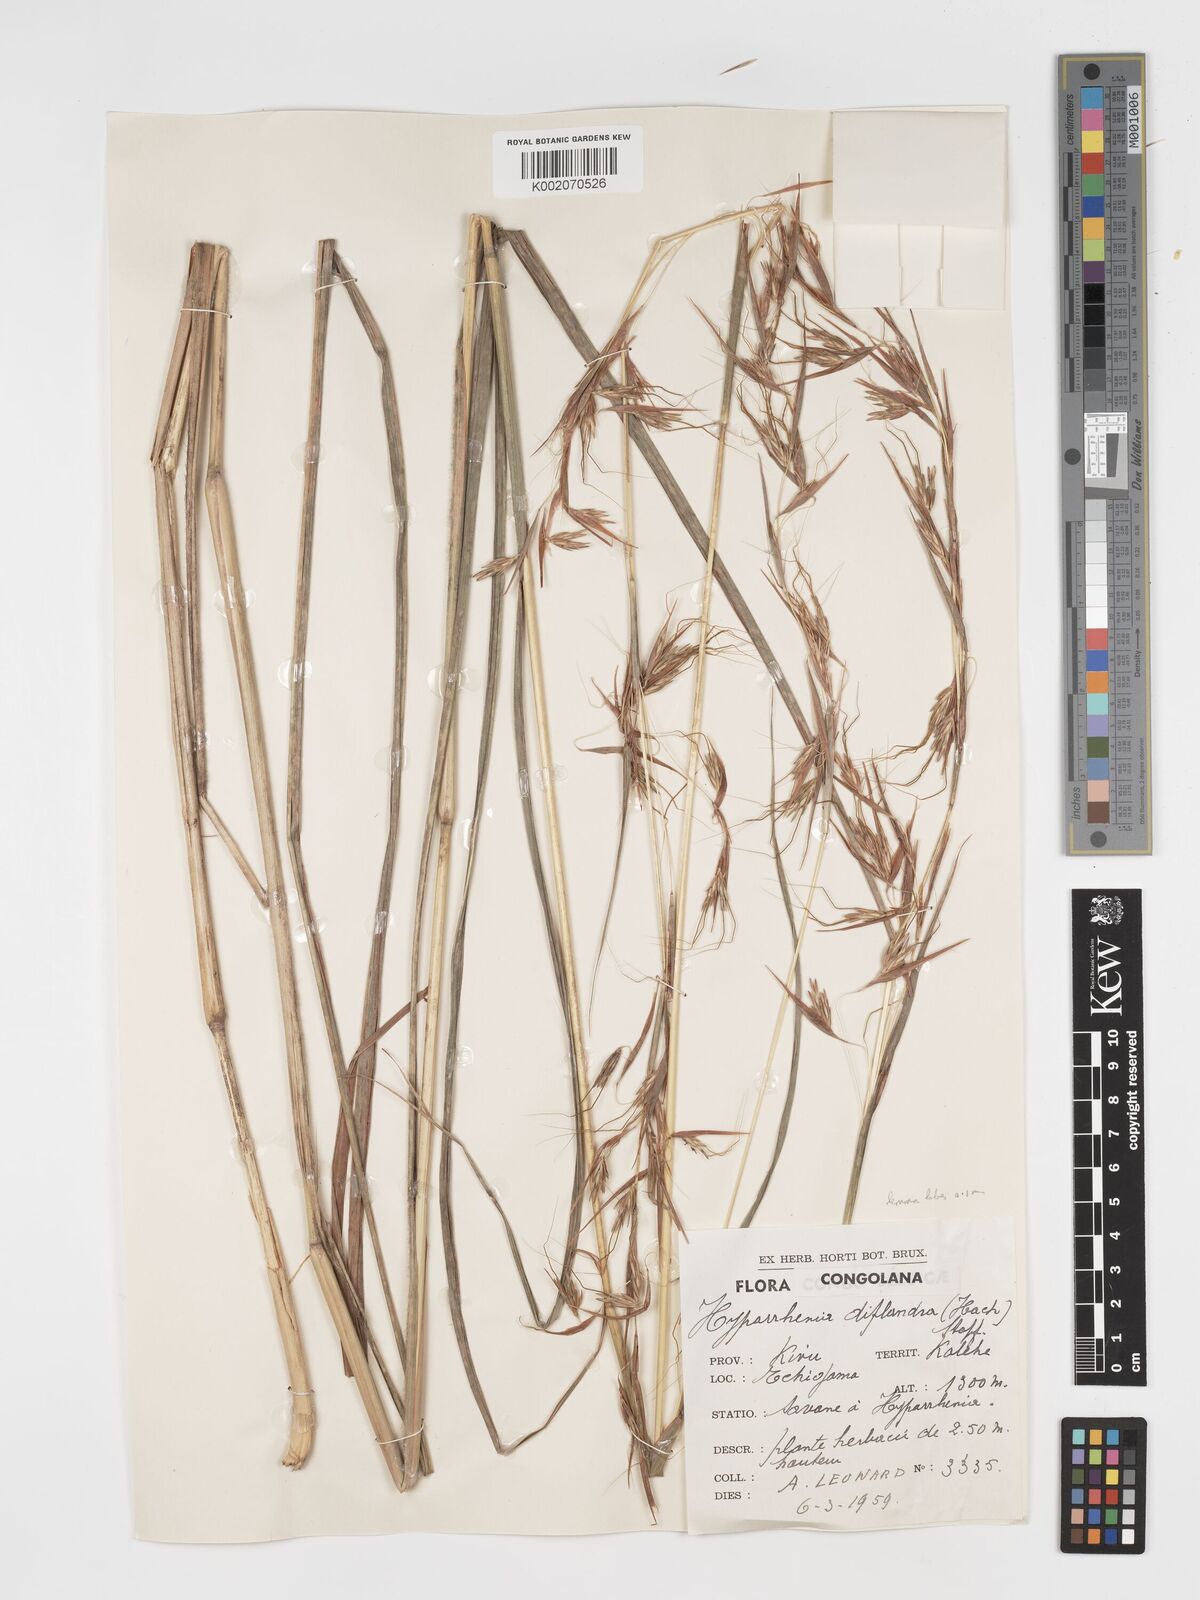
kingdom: Plantae
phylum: Tracheophyta
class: Liliopsida
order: Poales
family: Poaceae
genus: Hyparrhenia
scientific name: Hyparrhenia diplandra
